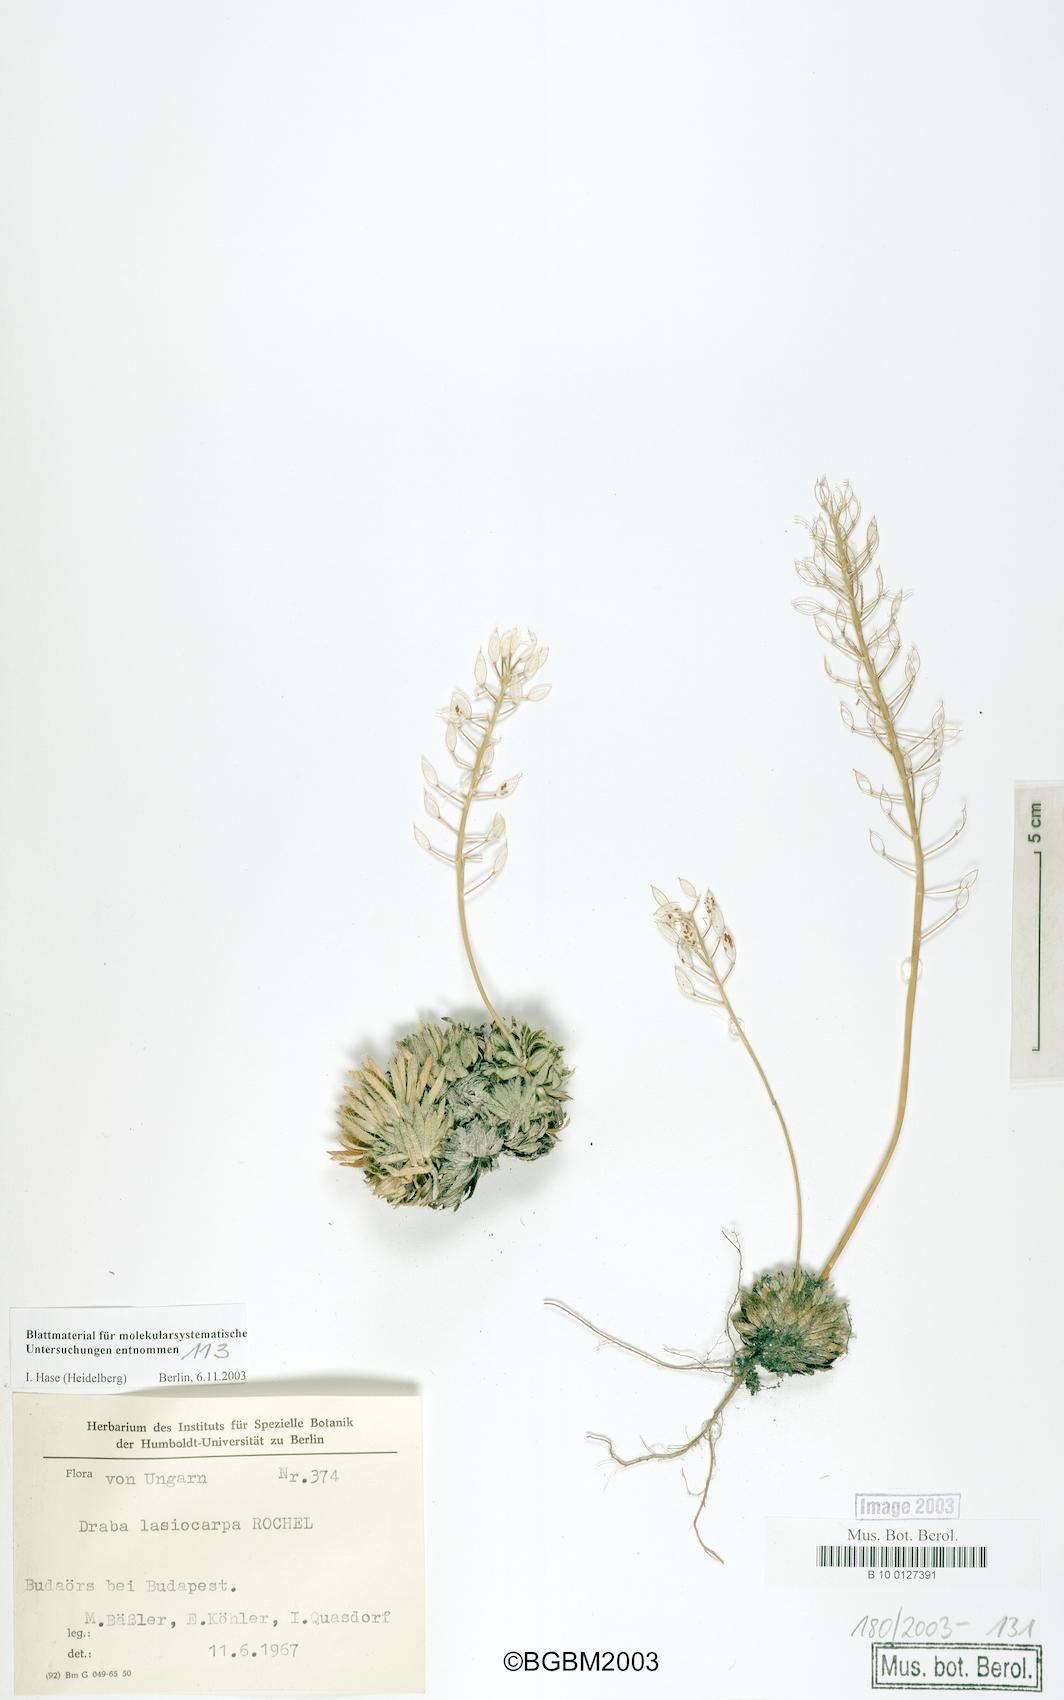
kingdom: Plantae
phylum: Tracheophyta
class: Magnoliopsida
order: Brassicales
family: Brassicaceae
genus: Draba
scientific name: Draba lasiocarpa
